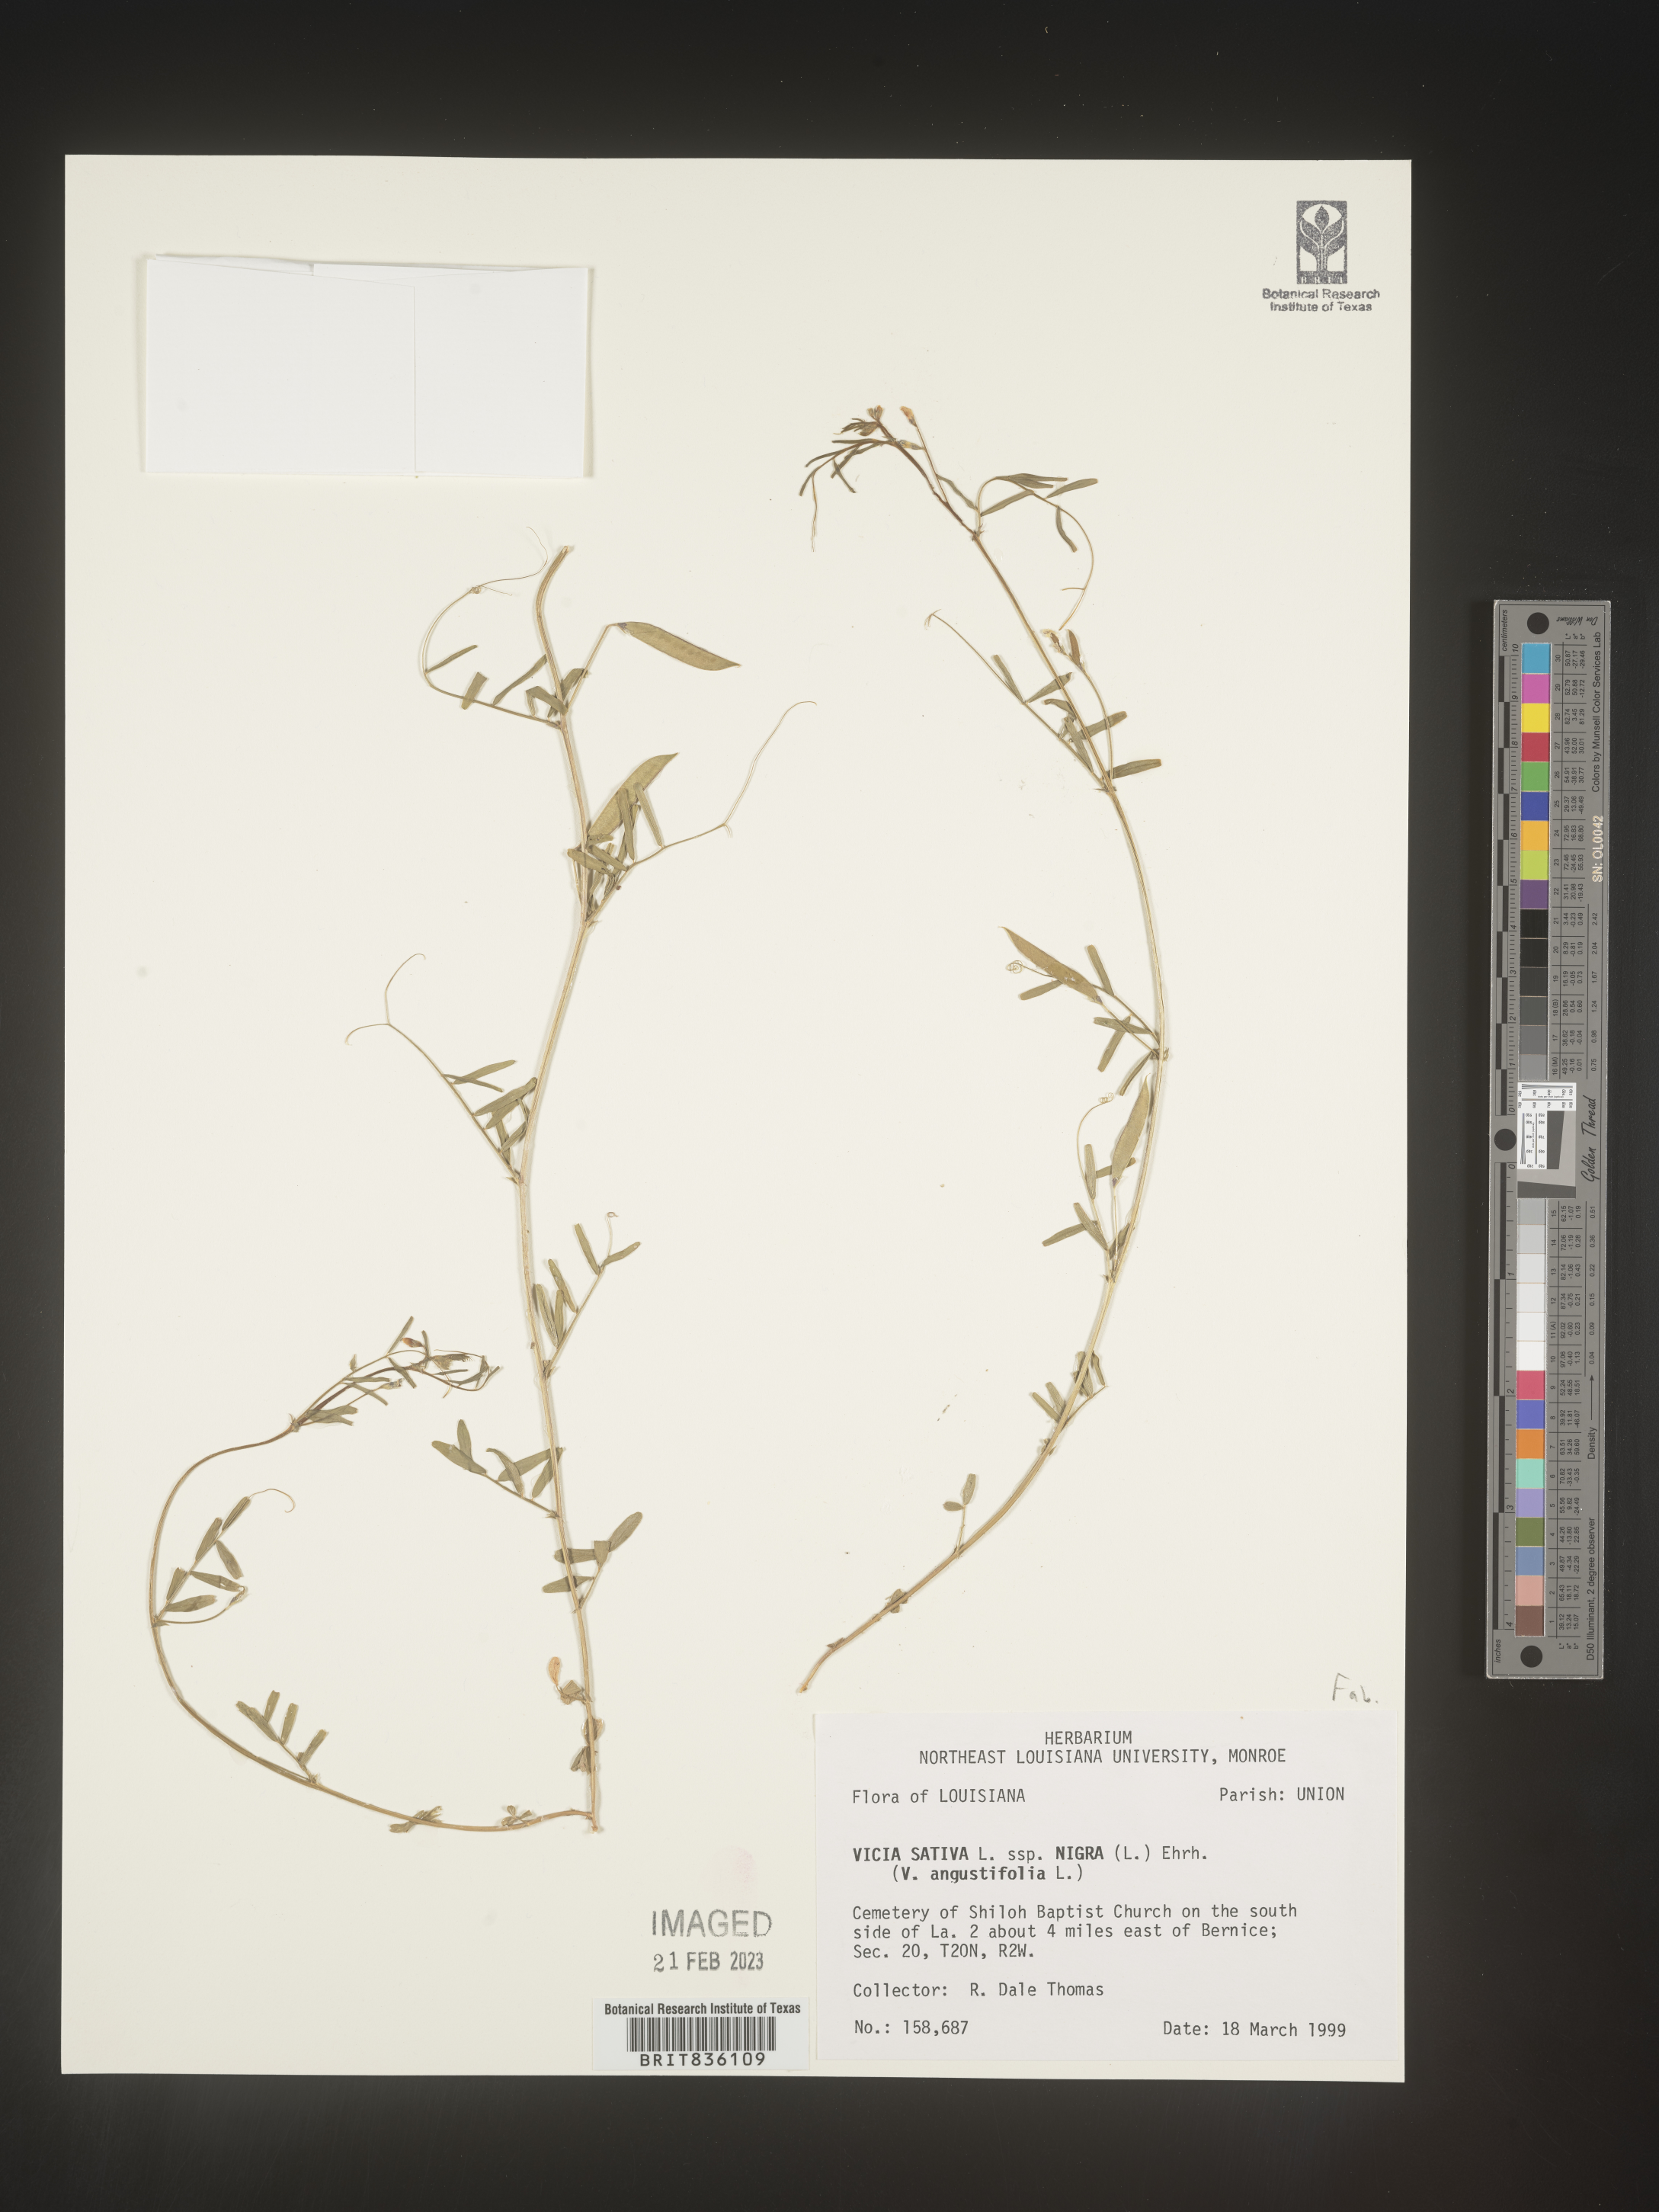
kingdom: Plantae
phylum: Tracheophyta
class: Magnoliopsida
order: Fabales
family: Fabaceae
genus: Vicia
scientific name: Vicia sativa
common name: Garden vetch
